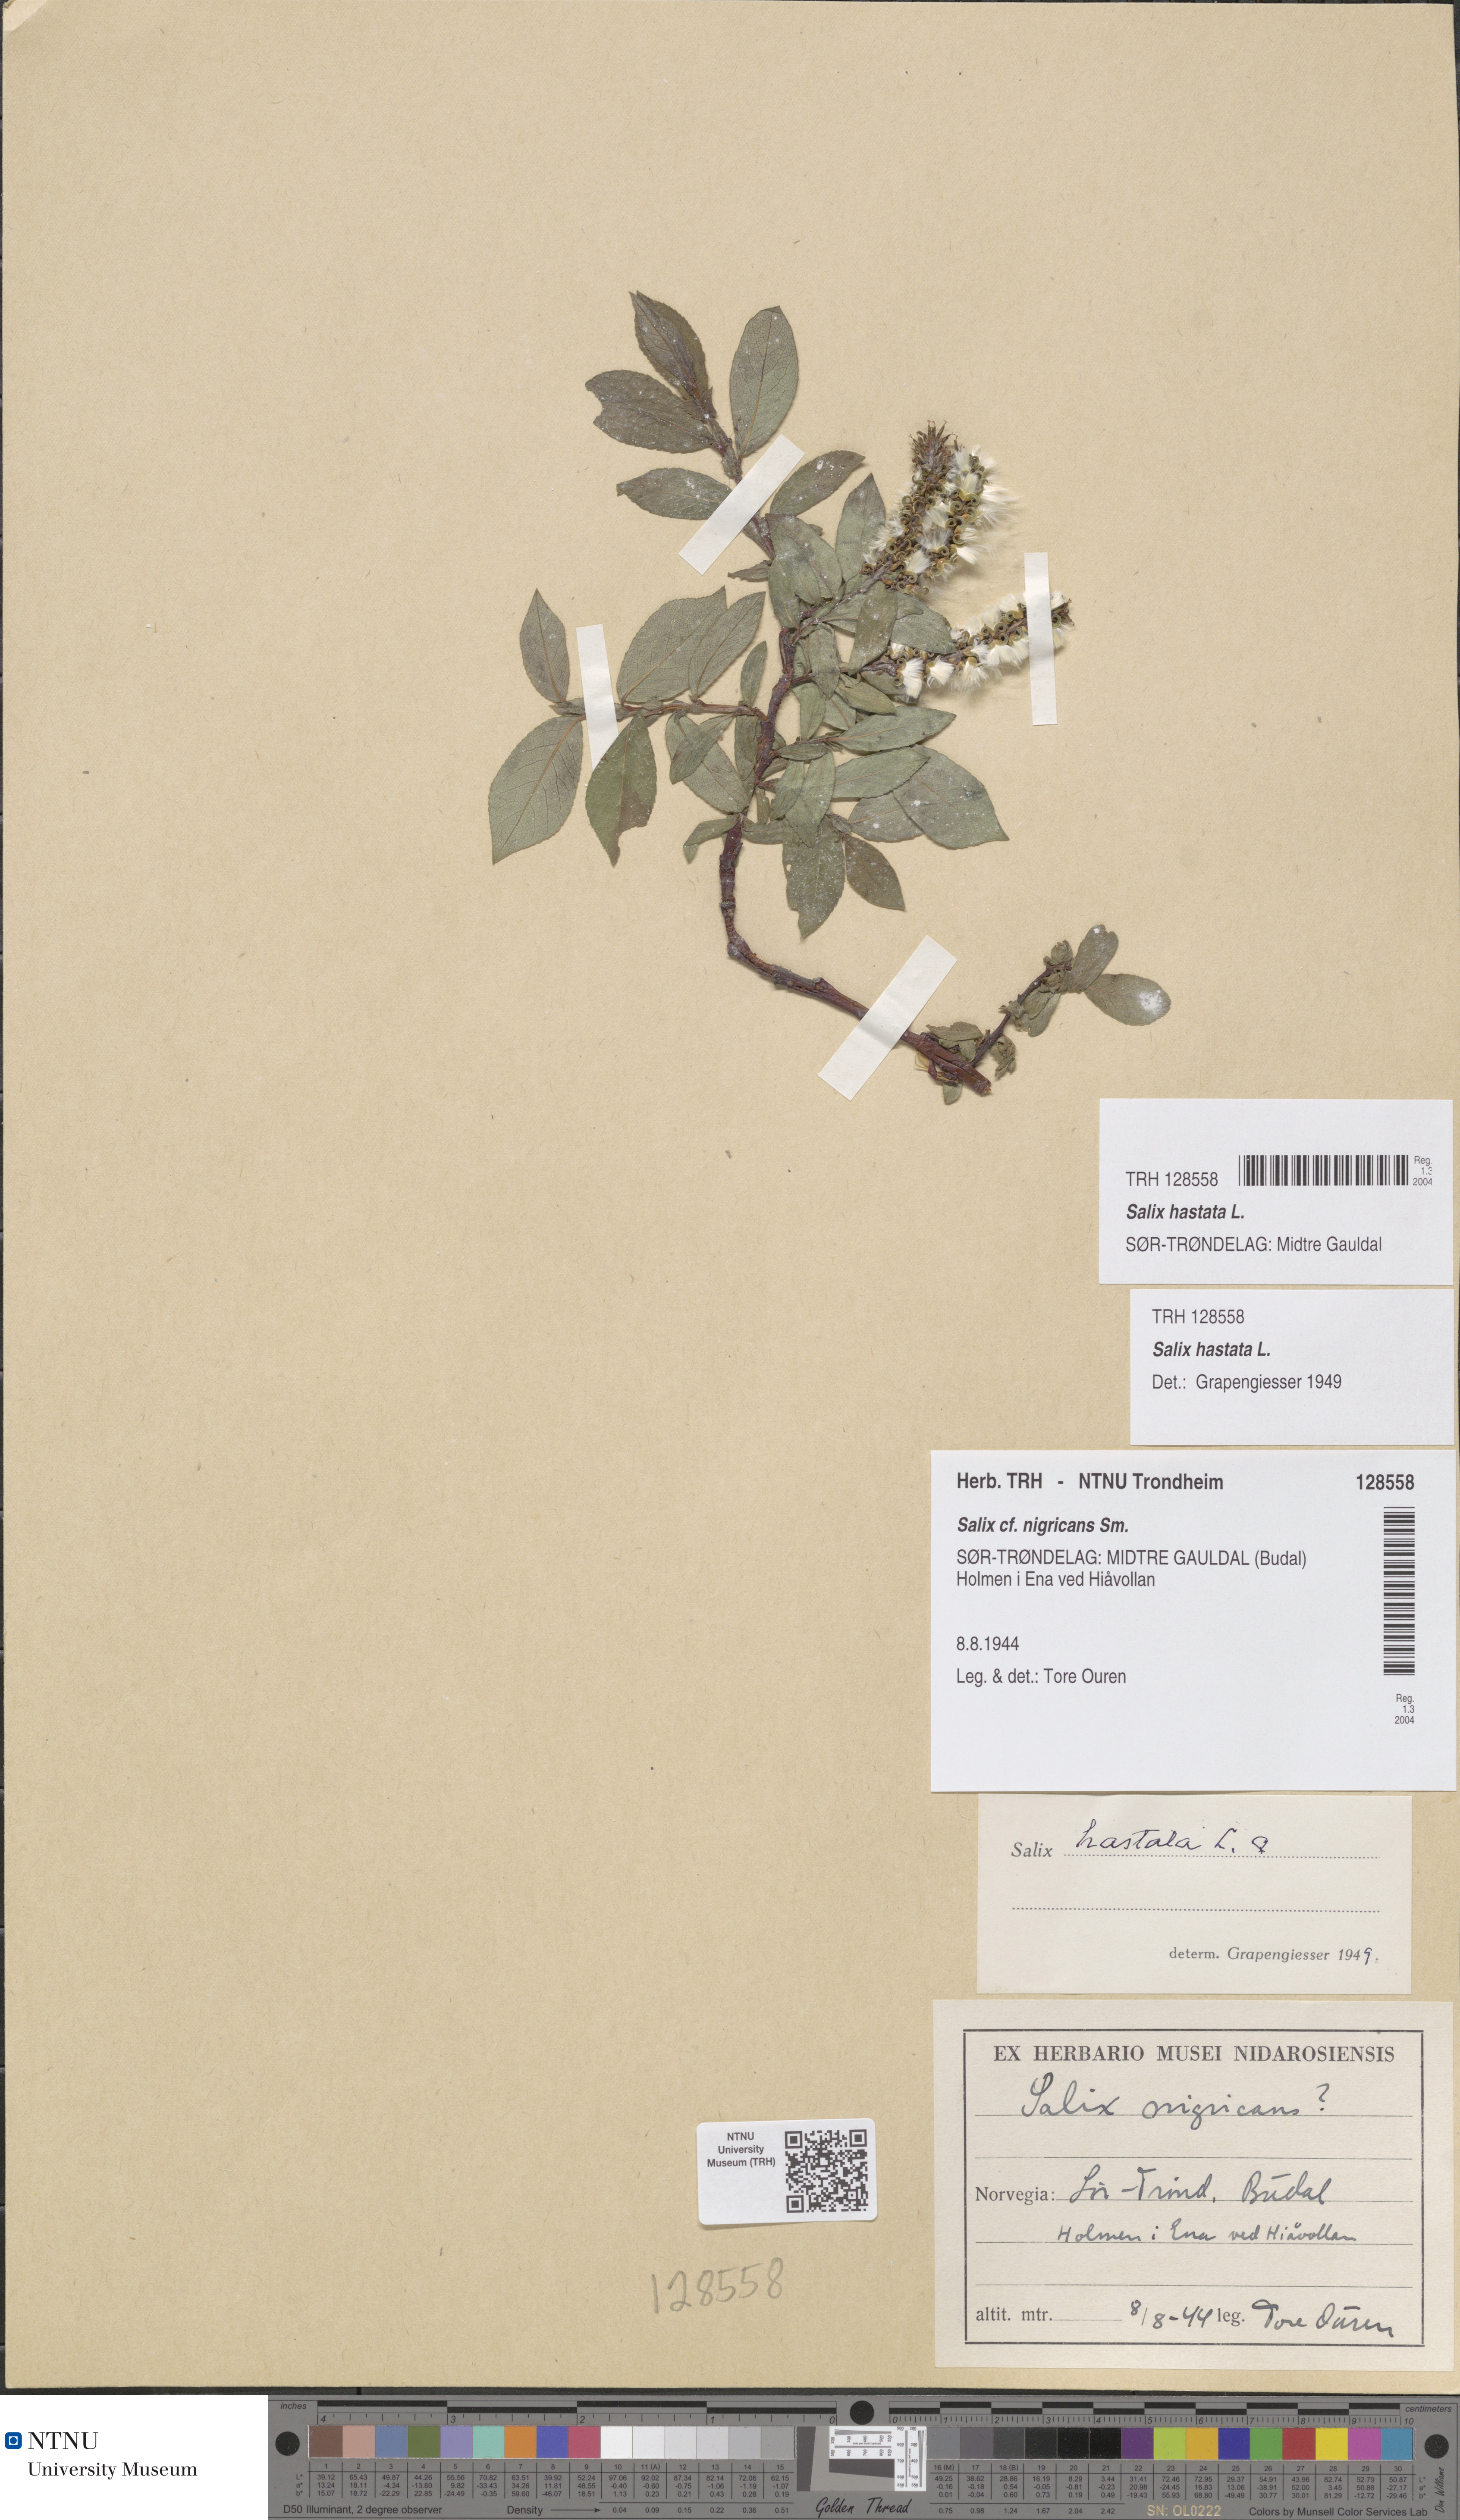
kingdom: Plantae
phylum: Tracheophyta
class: Magnoliopsida
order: Malpighiales
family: Salicaceae
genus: Salix
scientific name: Salix hastata
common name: Halberd willow
